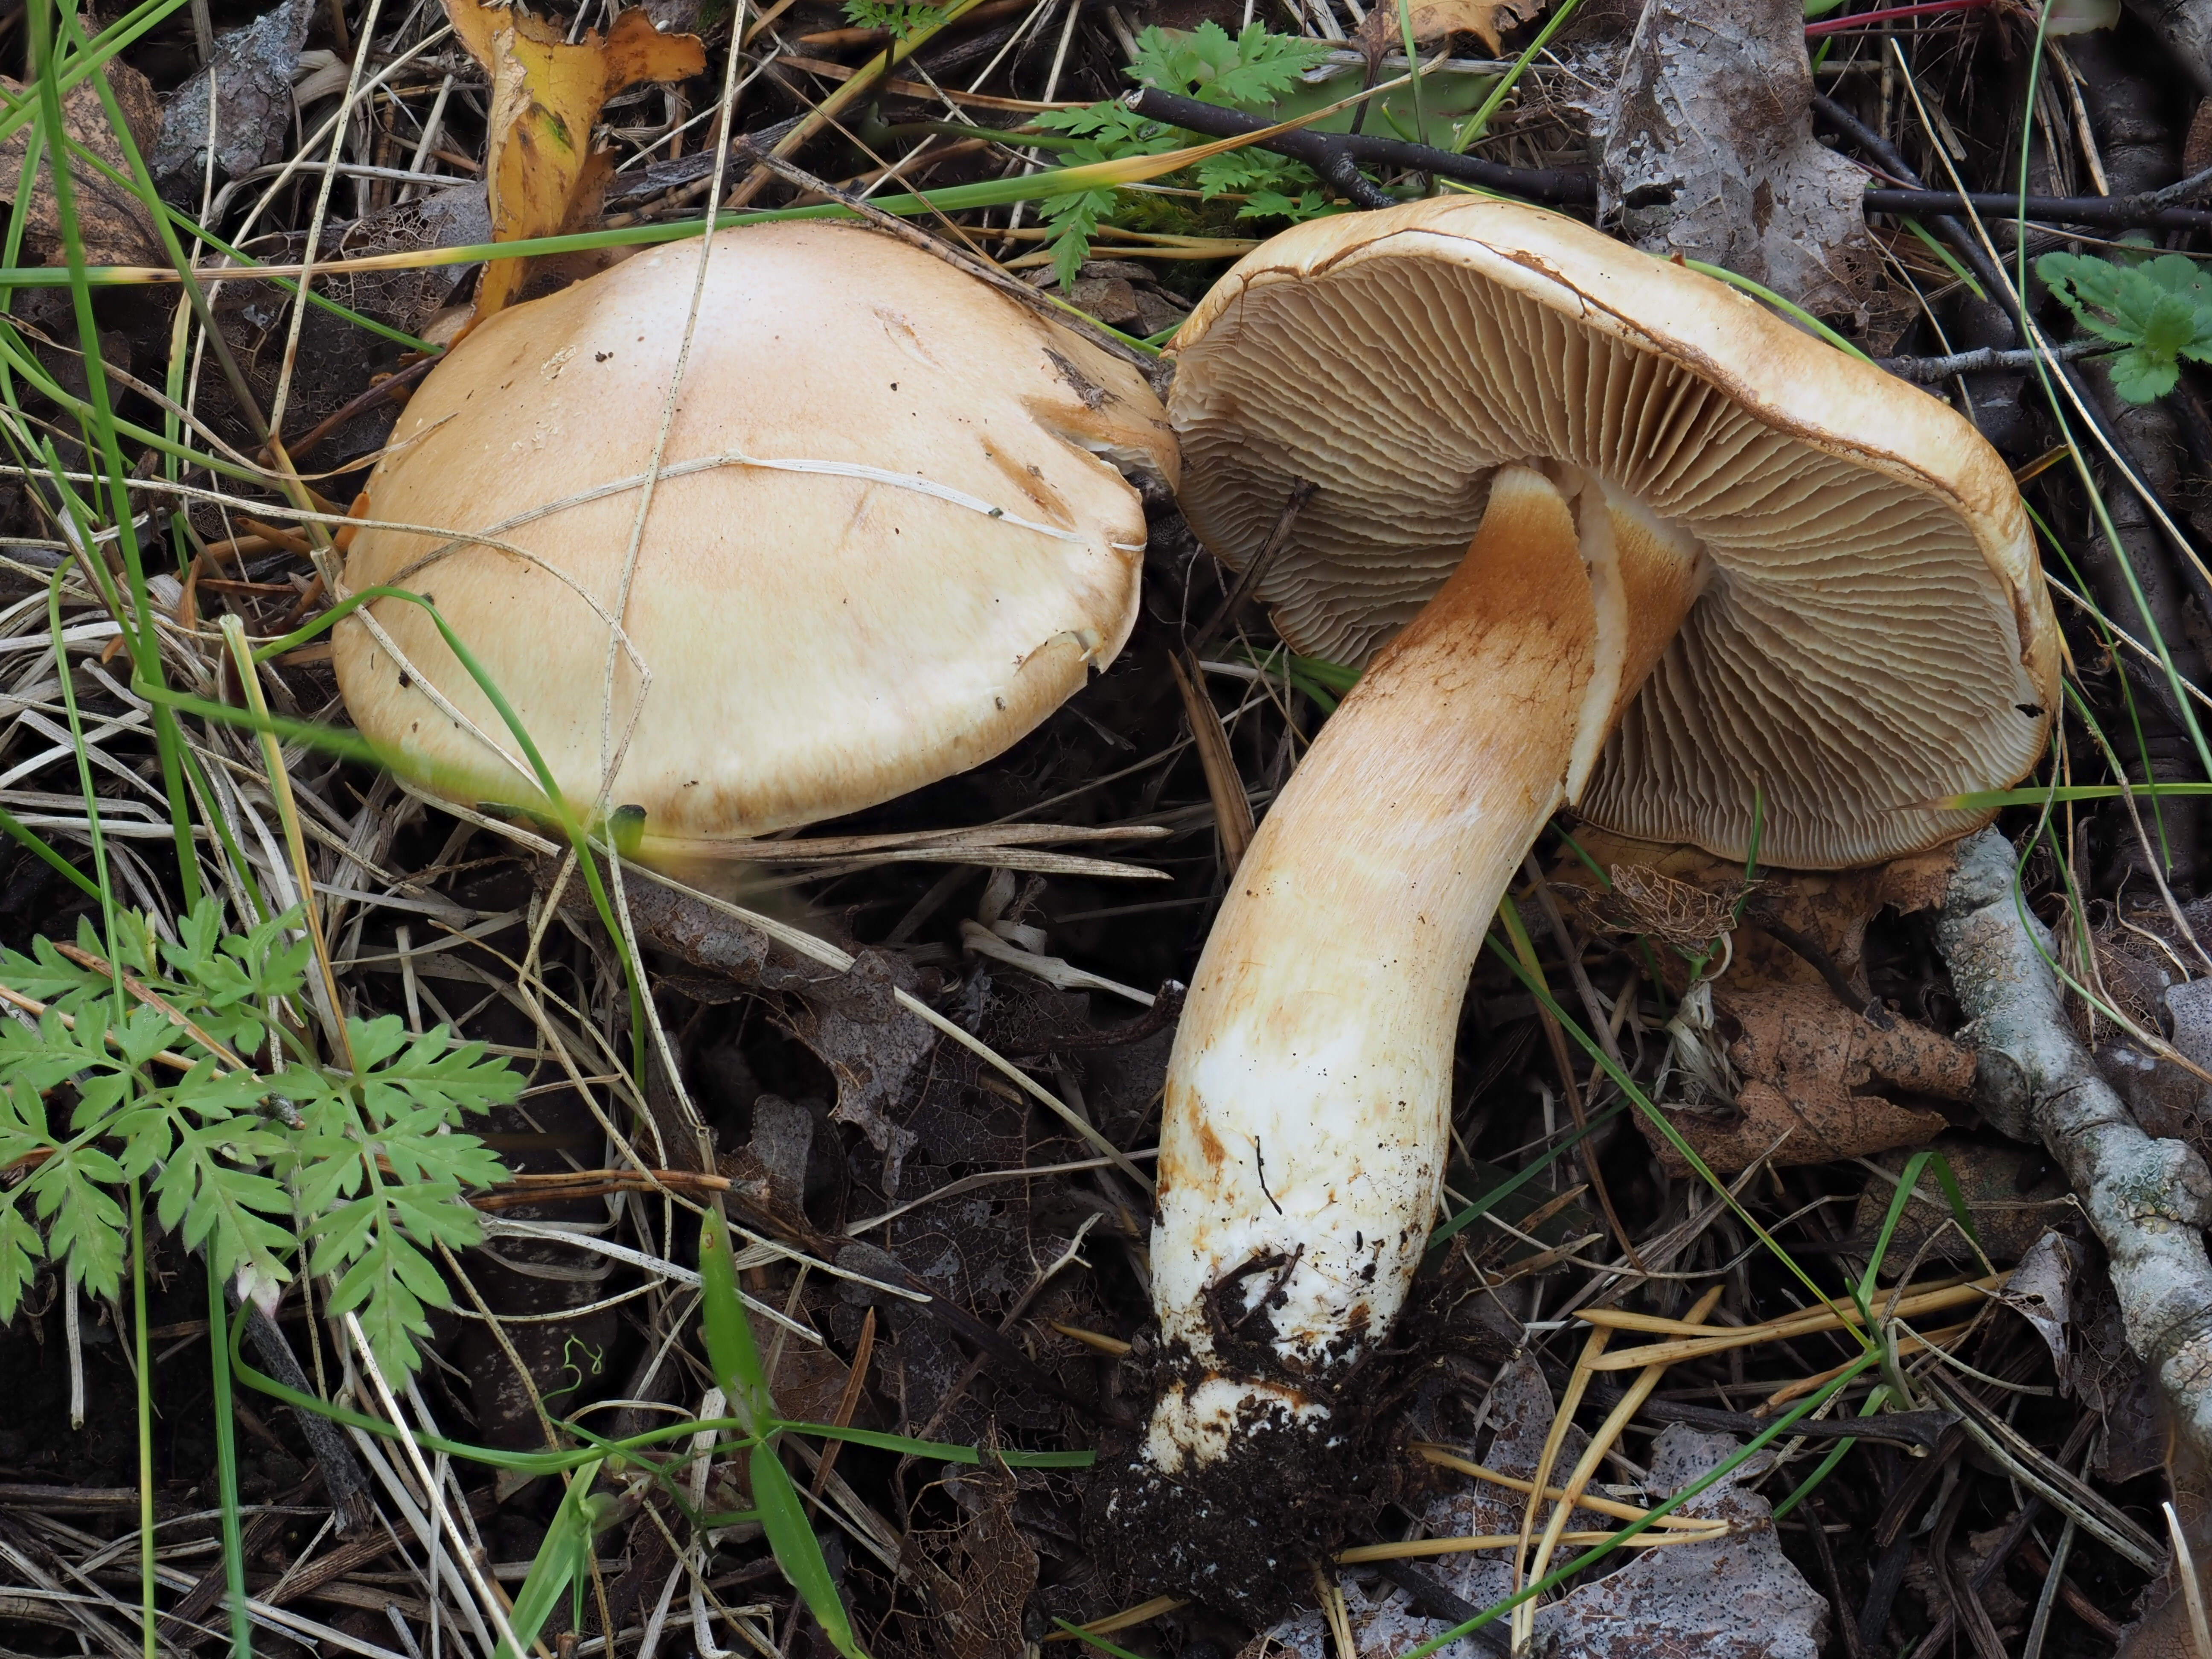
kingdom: Fungi
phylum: Basidiomycota
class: Agaricomycetes
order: Agaricales
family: Cortinariaceae
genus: Cortinarius
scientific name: Cortinarius lucorum
